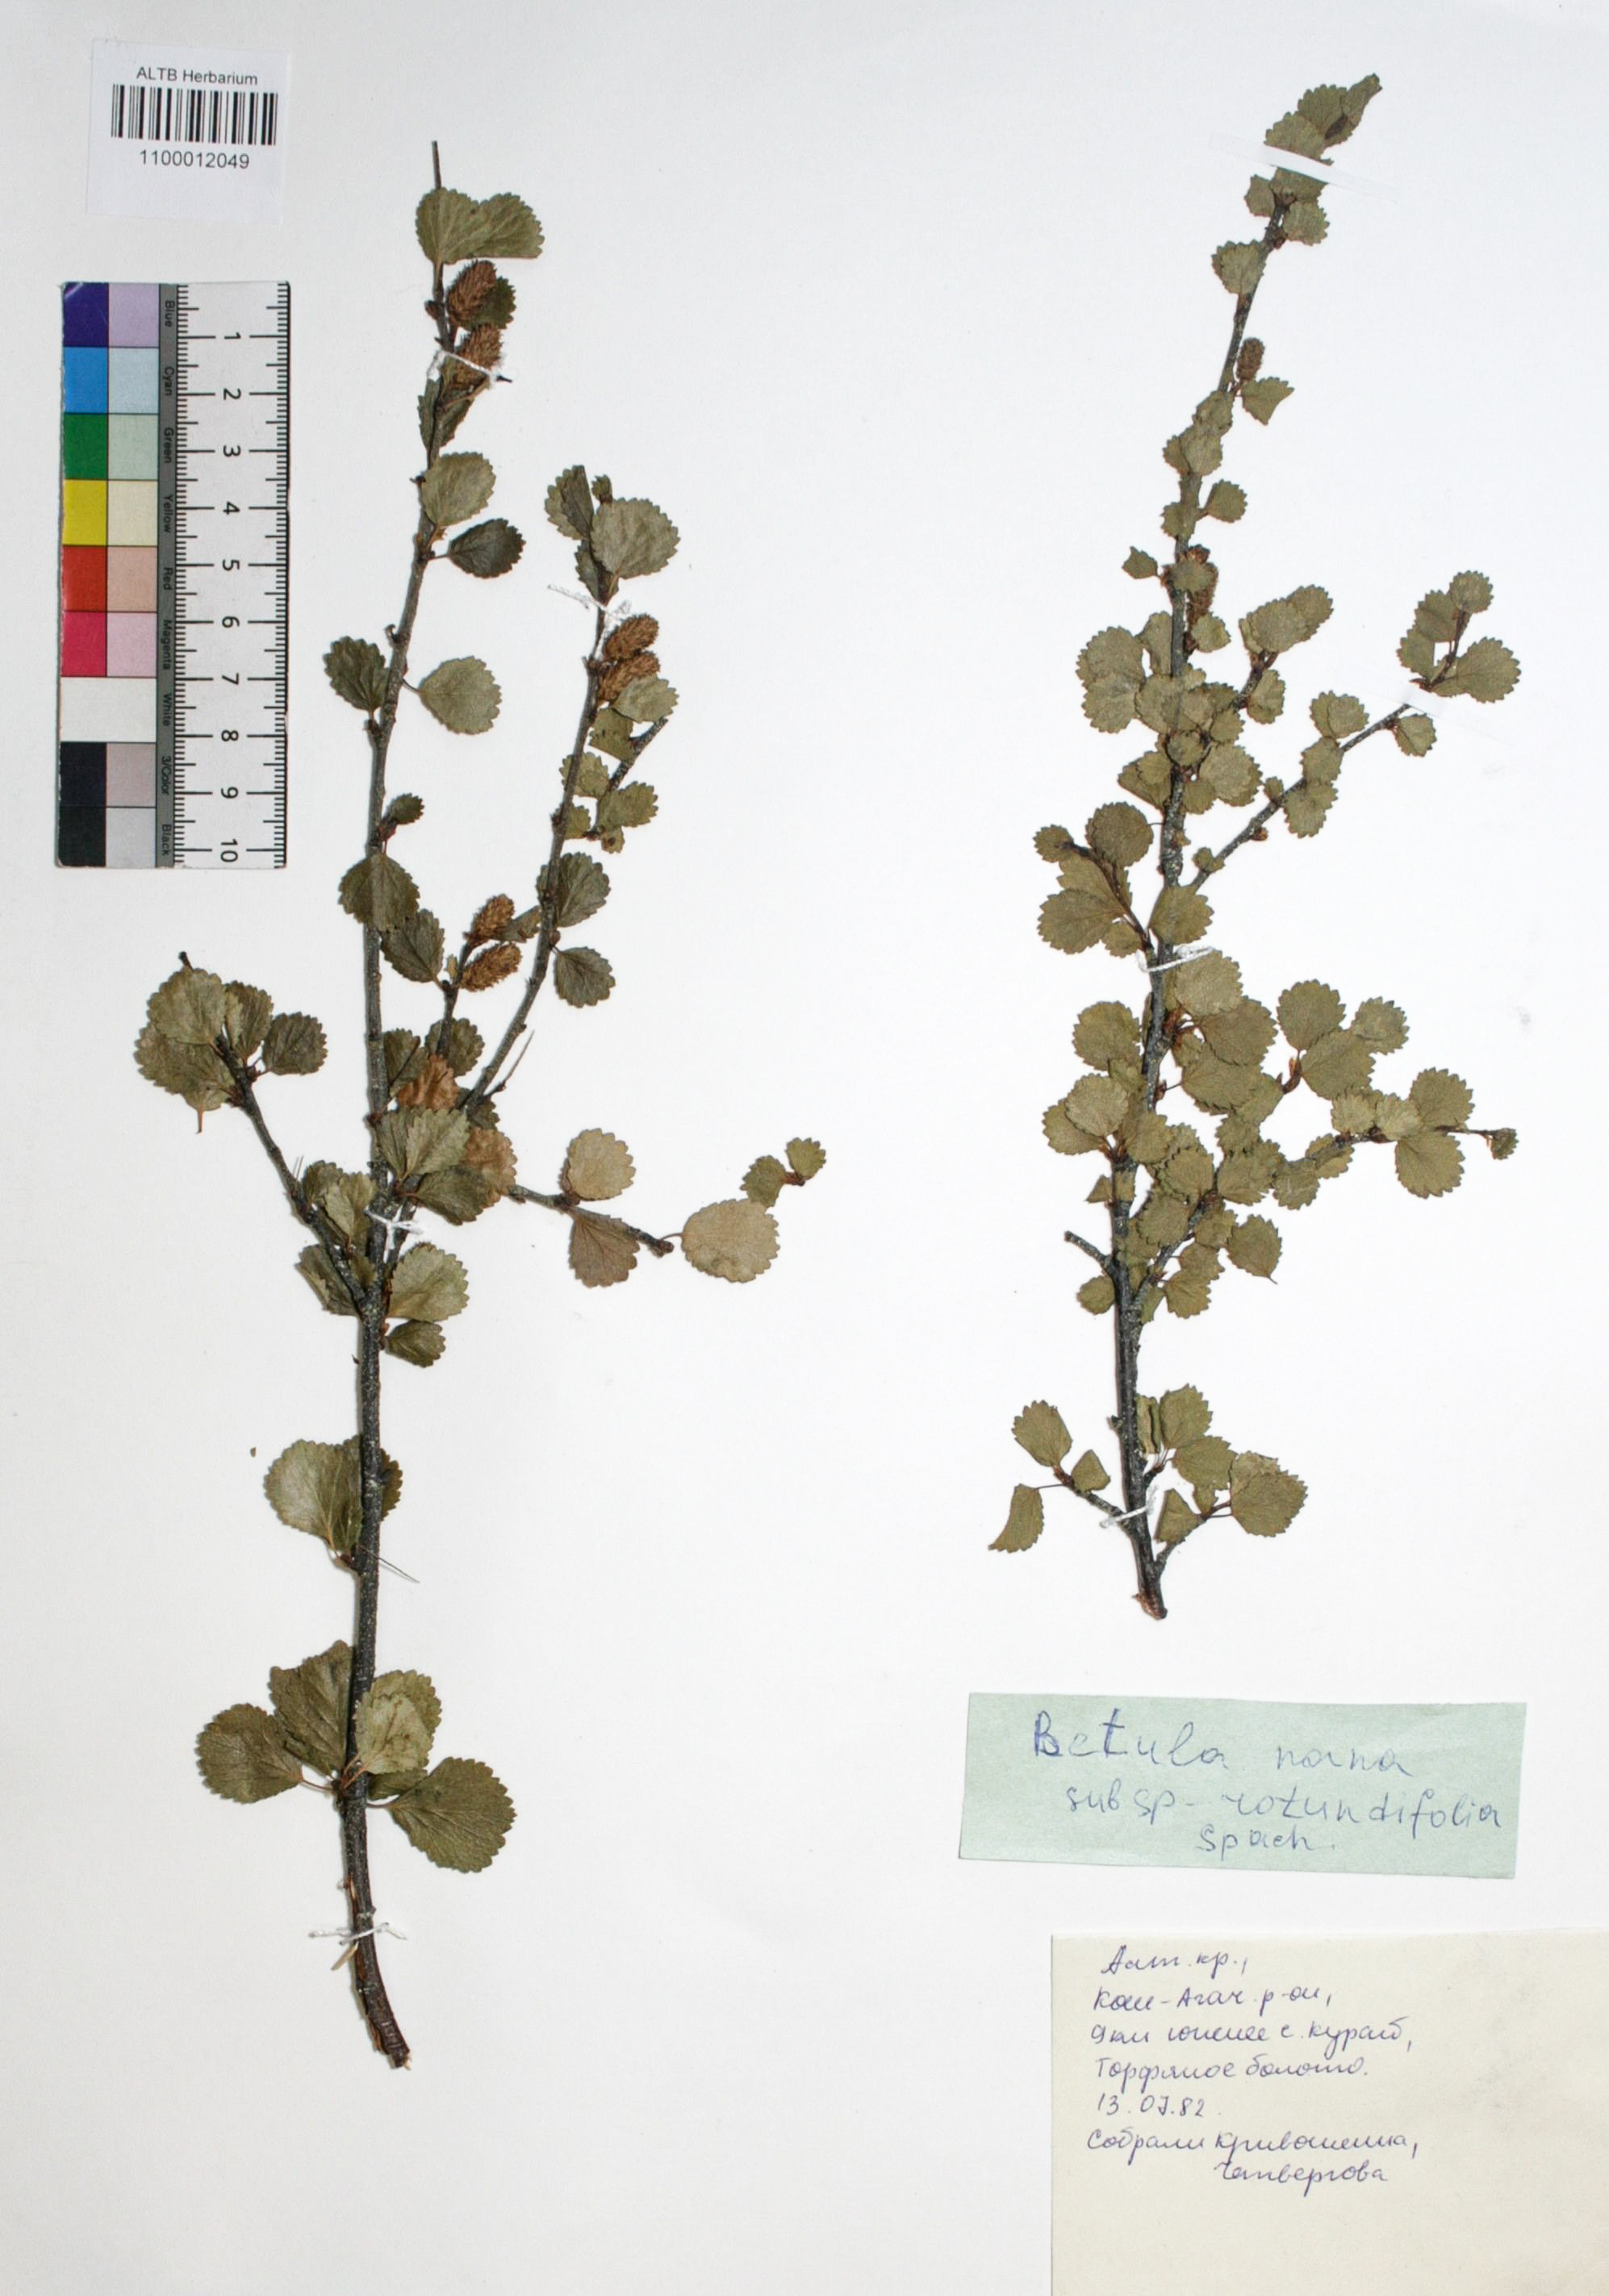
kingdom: Plantae
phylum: Tracheophyta
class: Magnoliopsida
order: Fagales
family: Betulaceae
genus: Betula
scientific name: Betula glandulosa
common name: Dwarf birch
